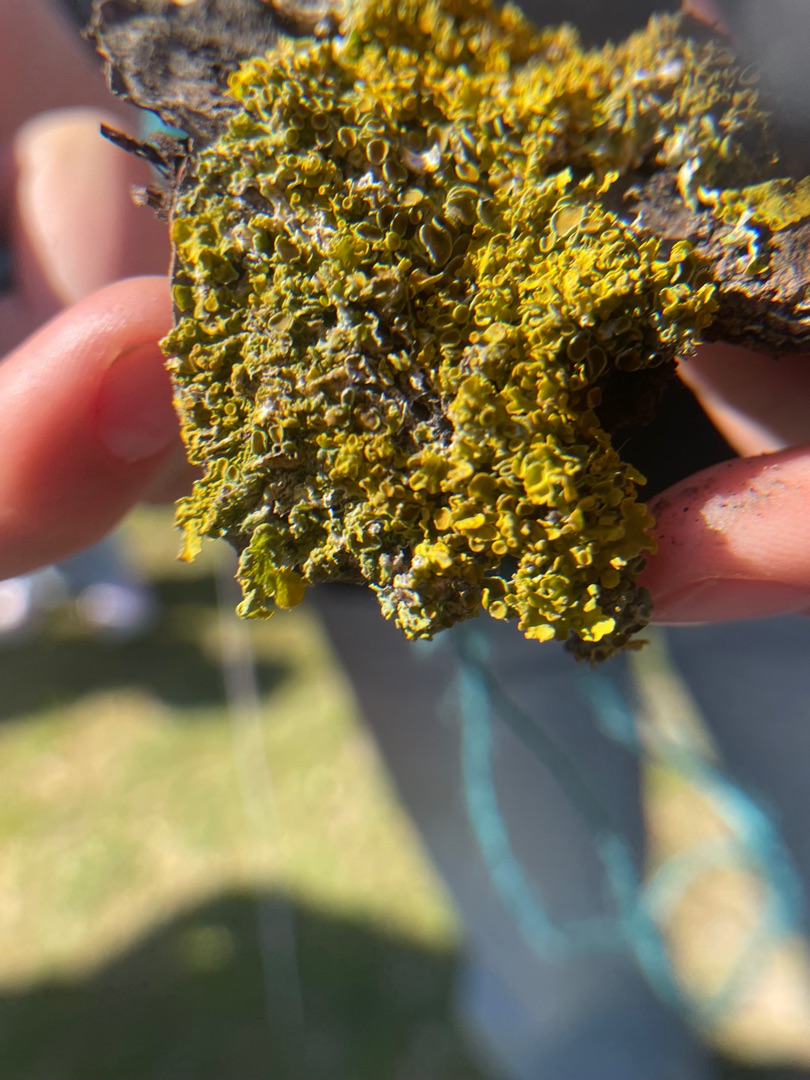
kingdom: Fungi
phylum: Ascomycota
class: Lecanoromycetes
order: Teloschistales
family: Teloschistaceae
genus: Xanthoria
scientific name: Xanthoria parietina
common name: Almindelig væggelav
